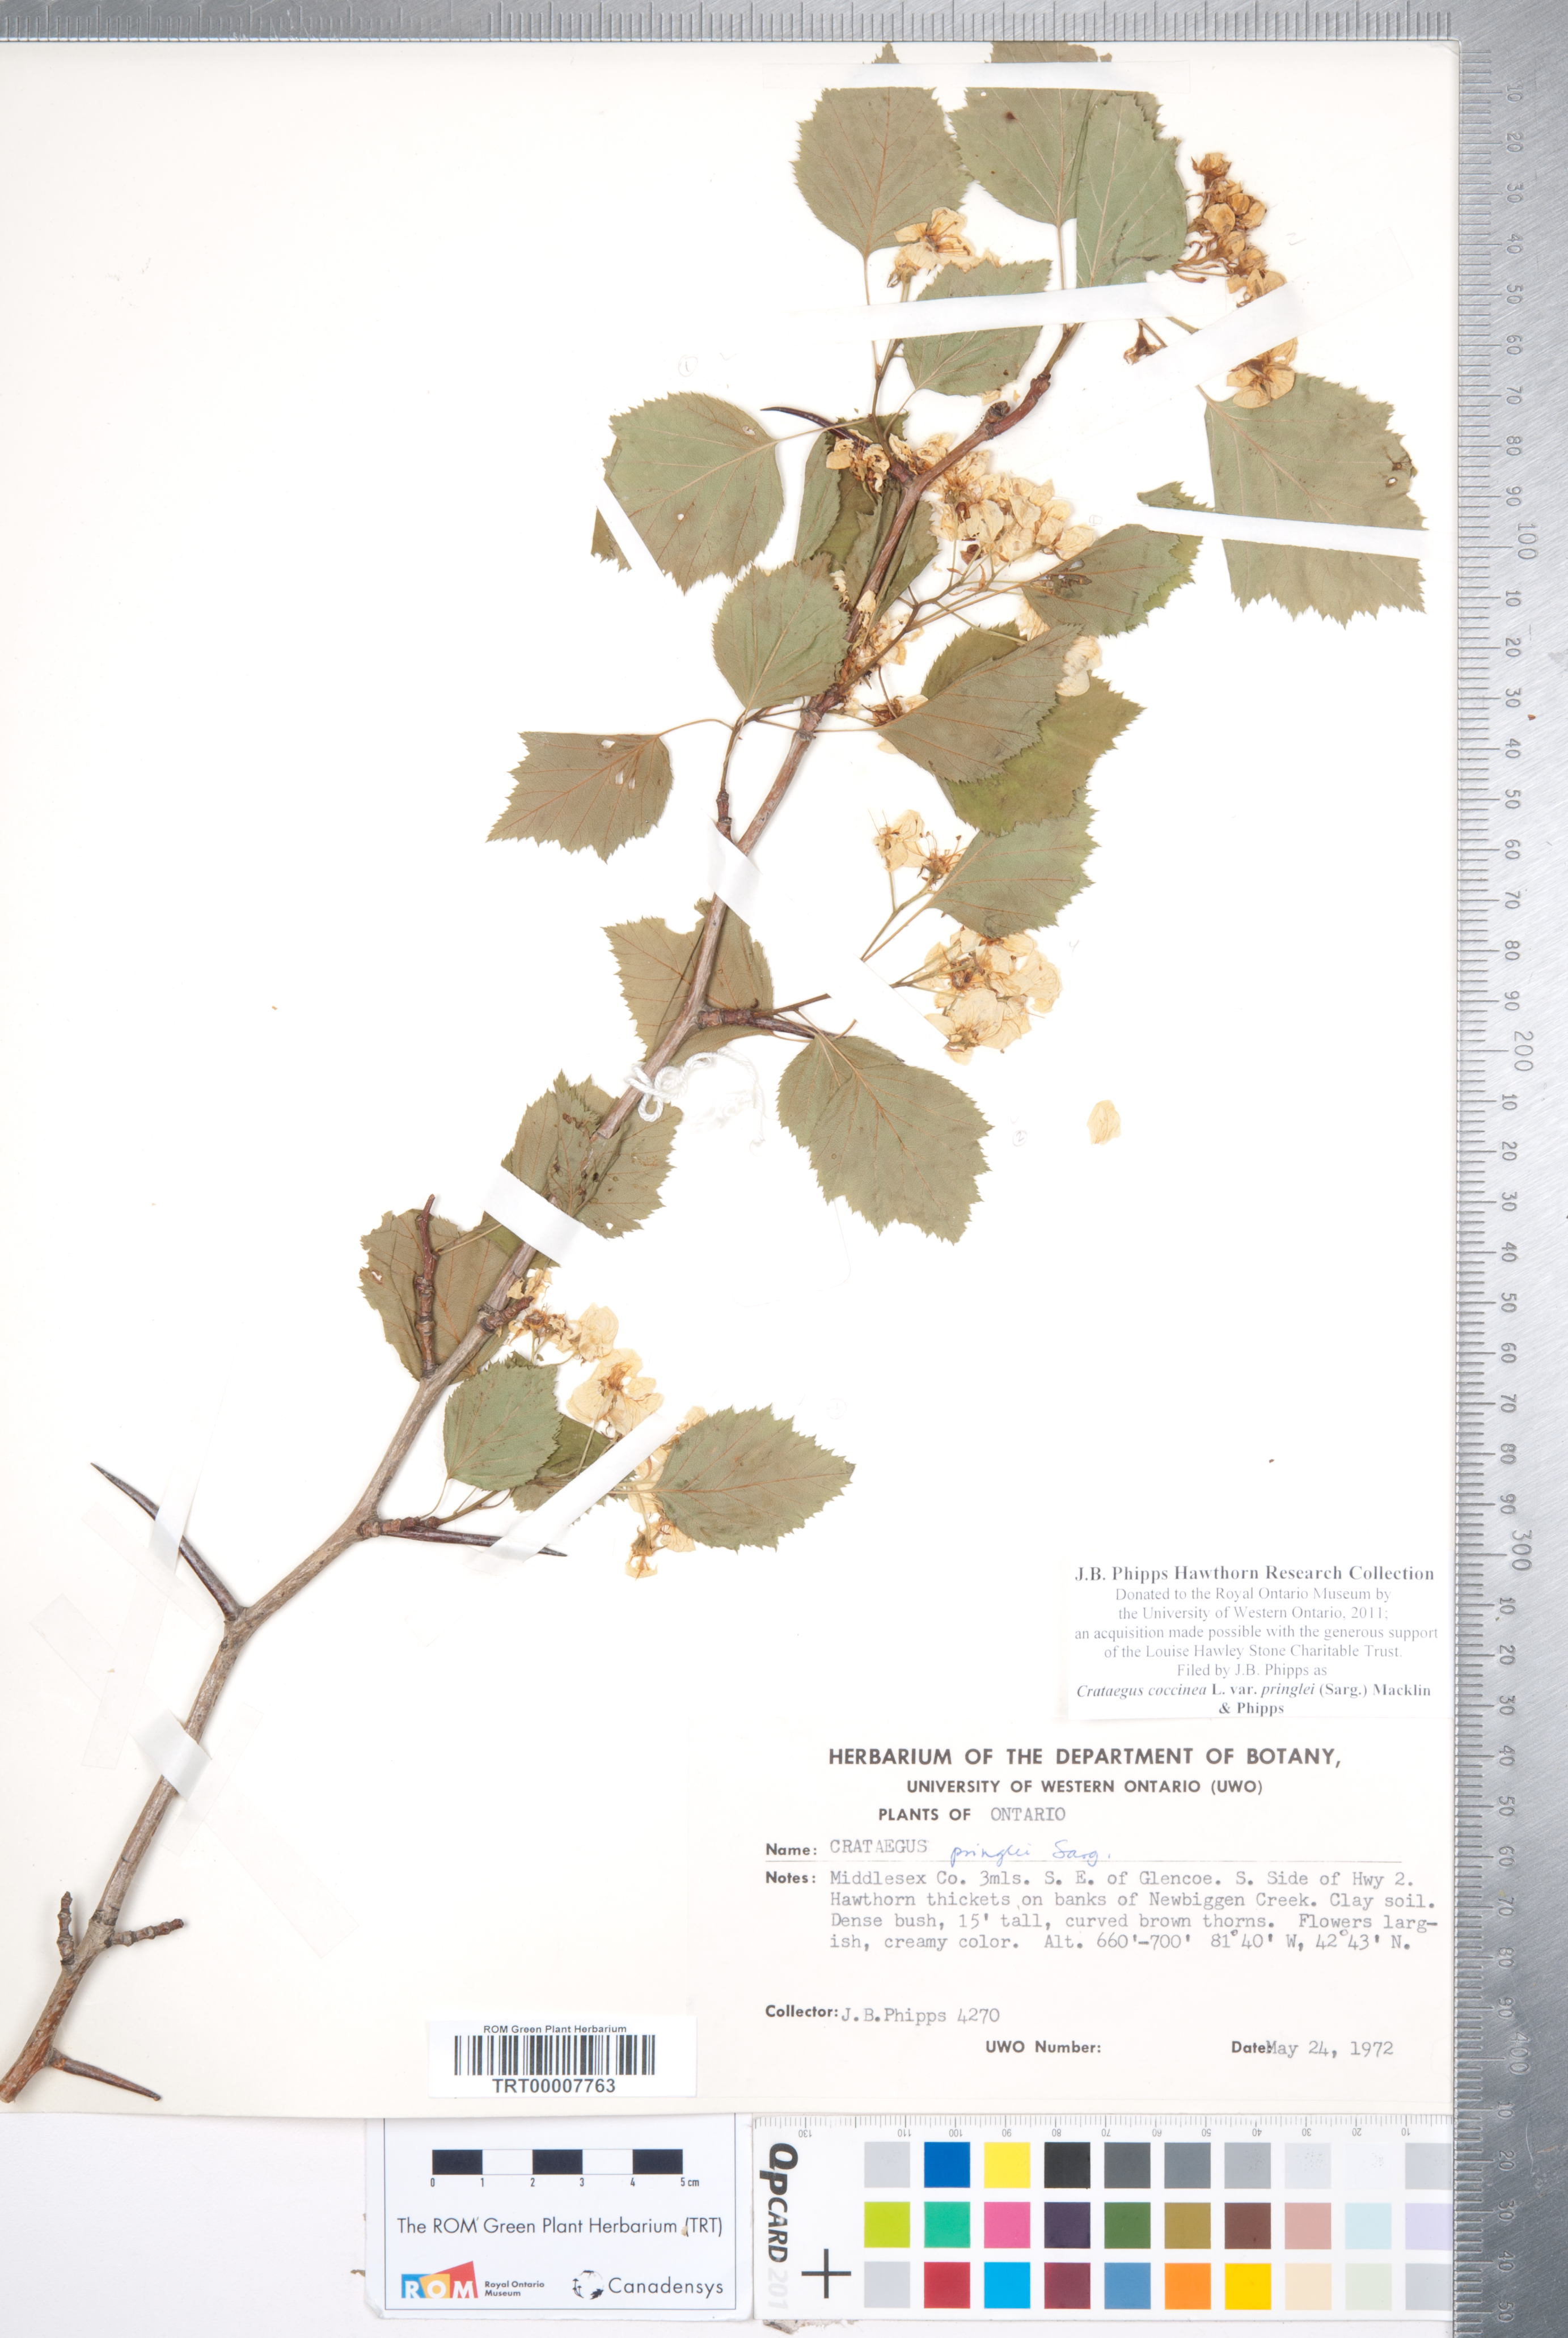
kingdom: Plantae
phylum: Tracheophyta
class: Magnoliopsida
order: Rosales
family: Rosaceae
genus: Crataegus
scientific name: Crataegus coccinea
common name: Scarlet hawthorn
